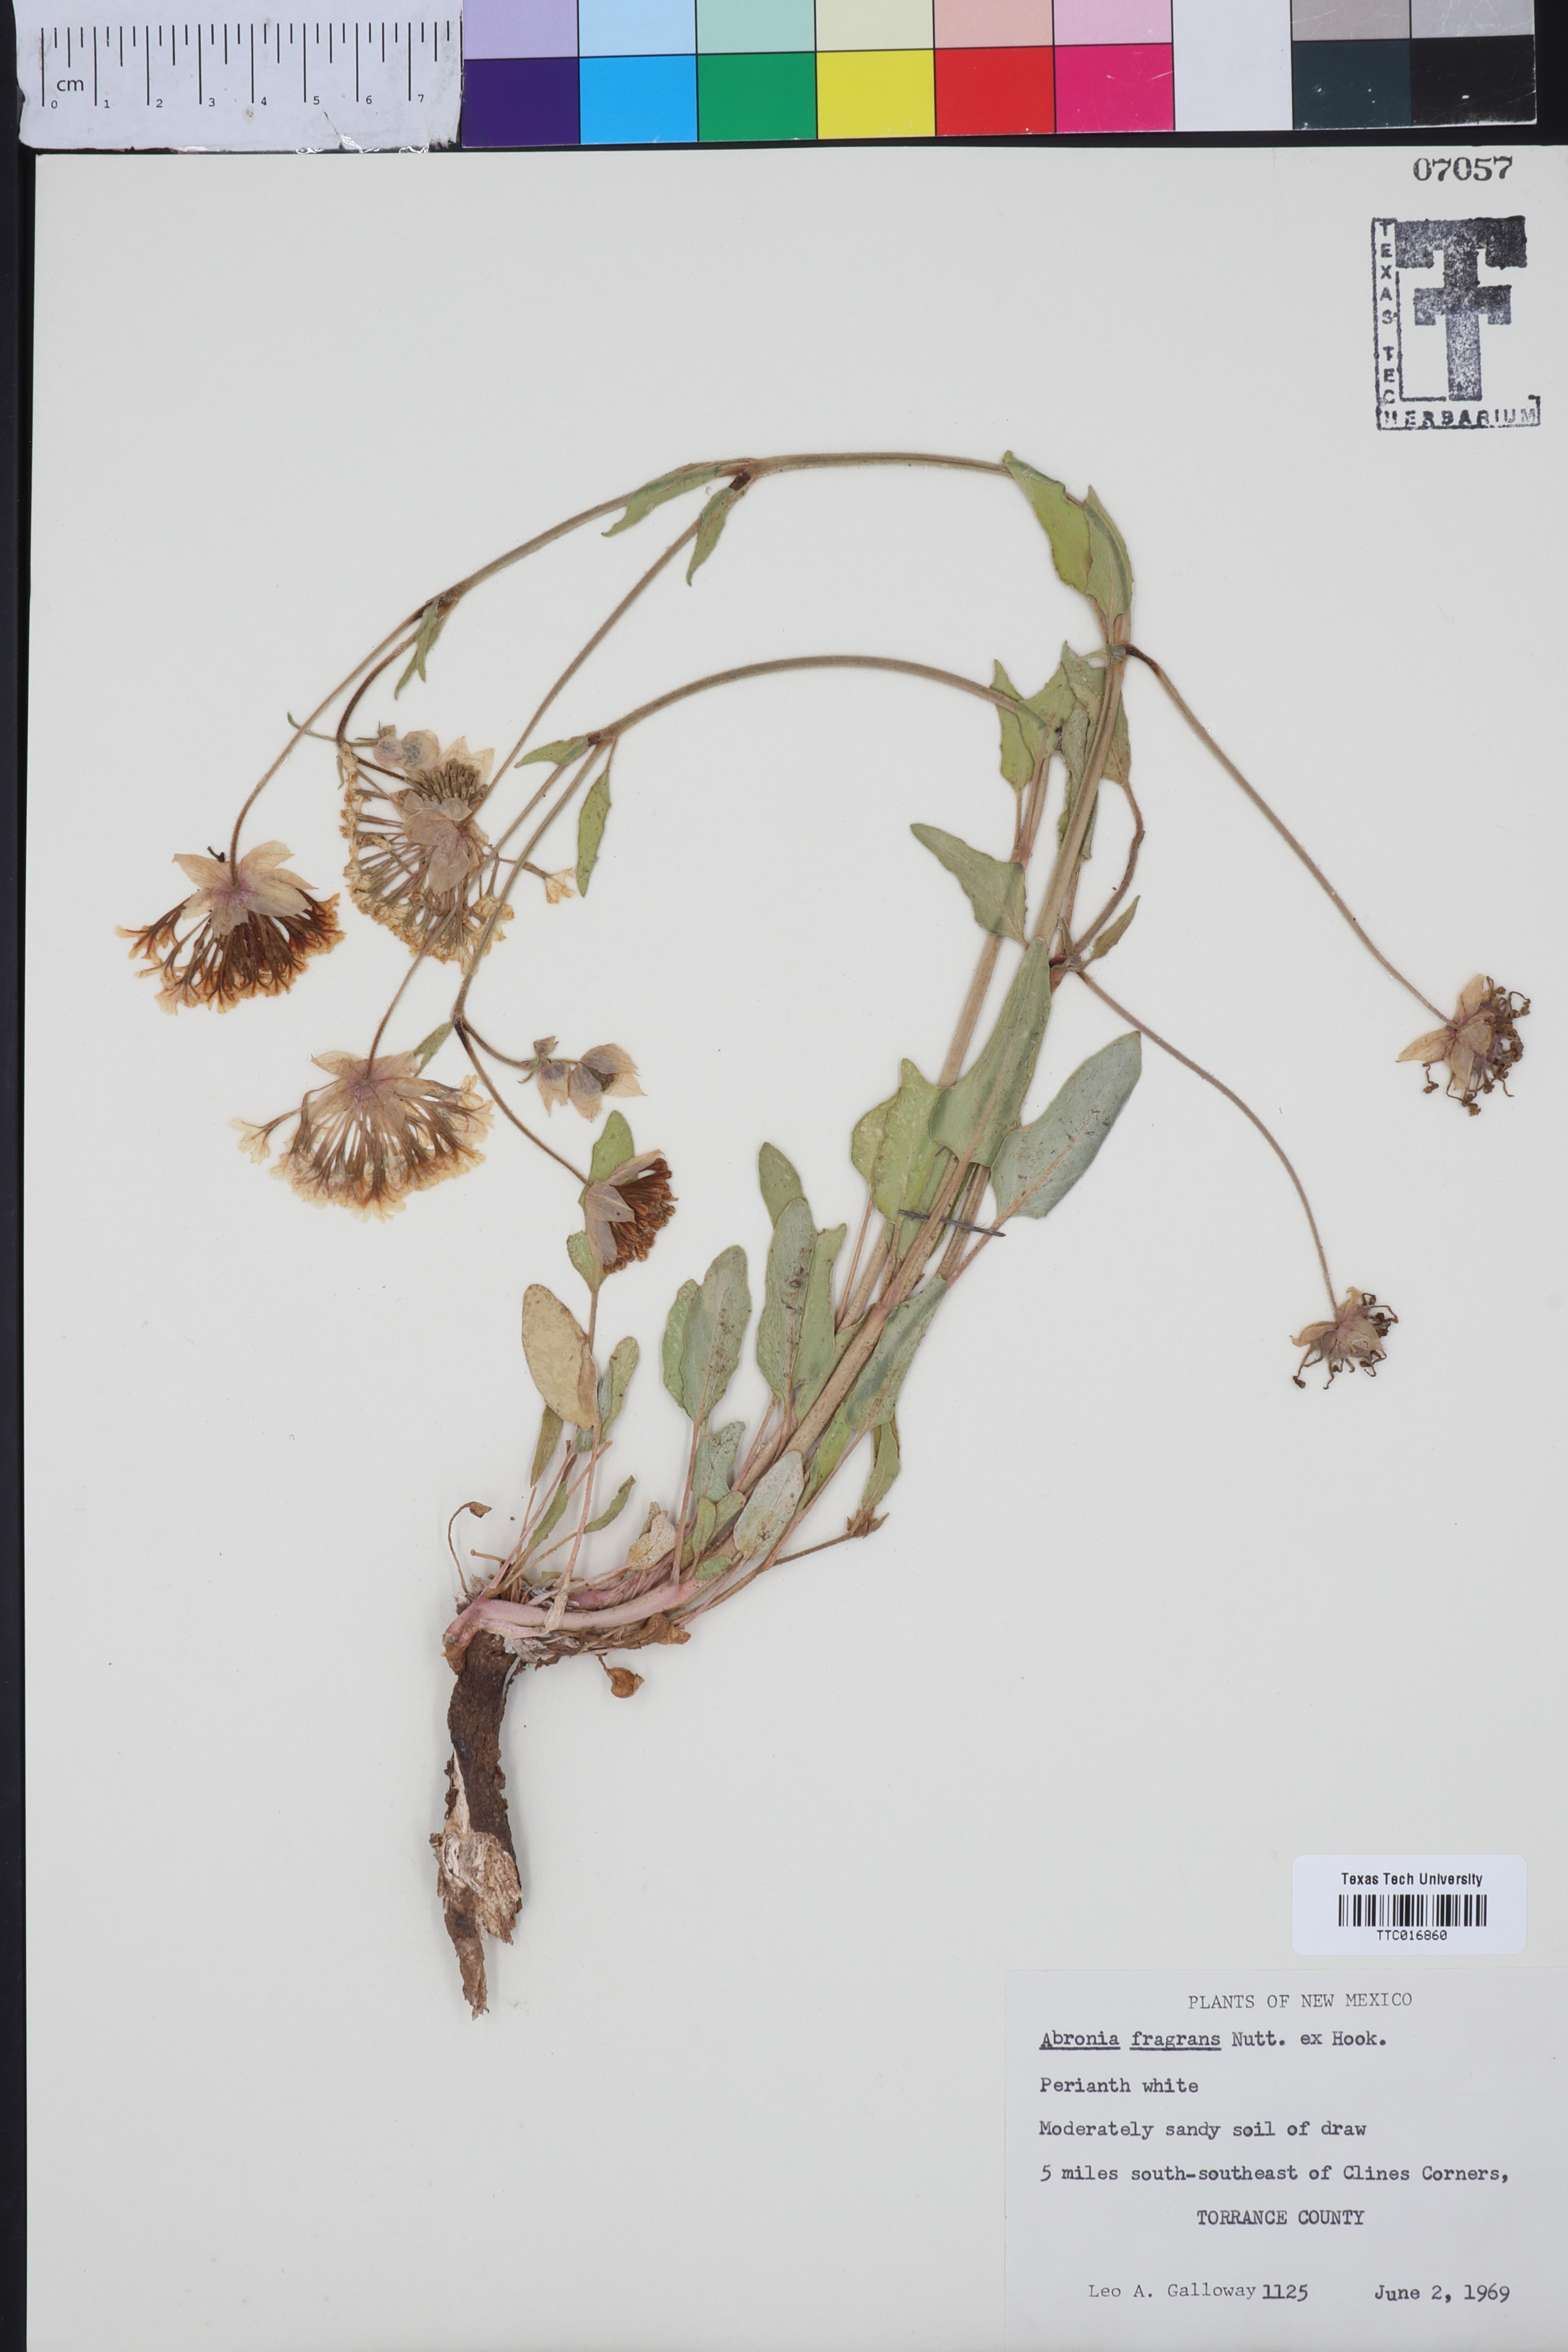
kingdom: Plantae
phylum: Tracheophyta
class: Magnoliopsida
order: Caryophyllales
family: Nyctaginaceae
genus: Abronia
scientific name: Abronia fragrans
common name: Fragrant sand-verbena
